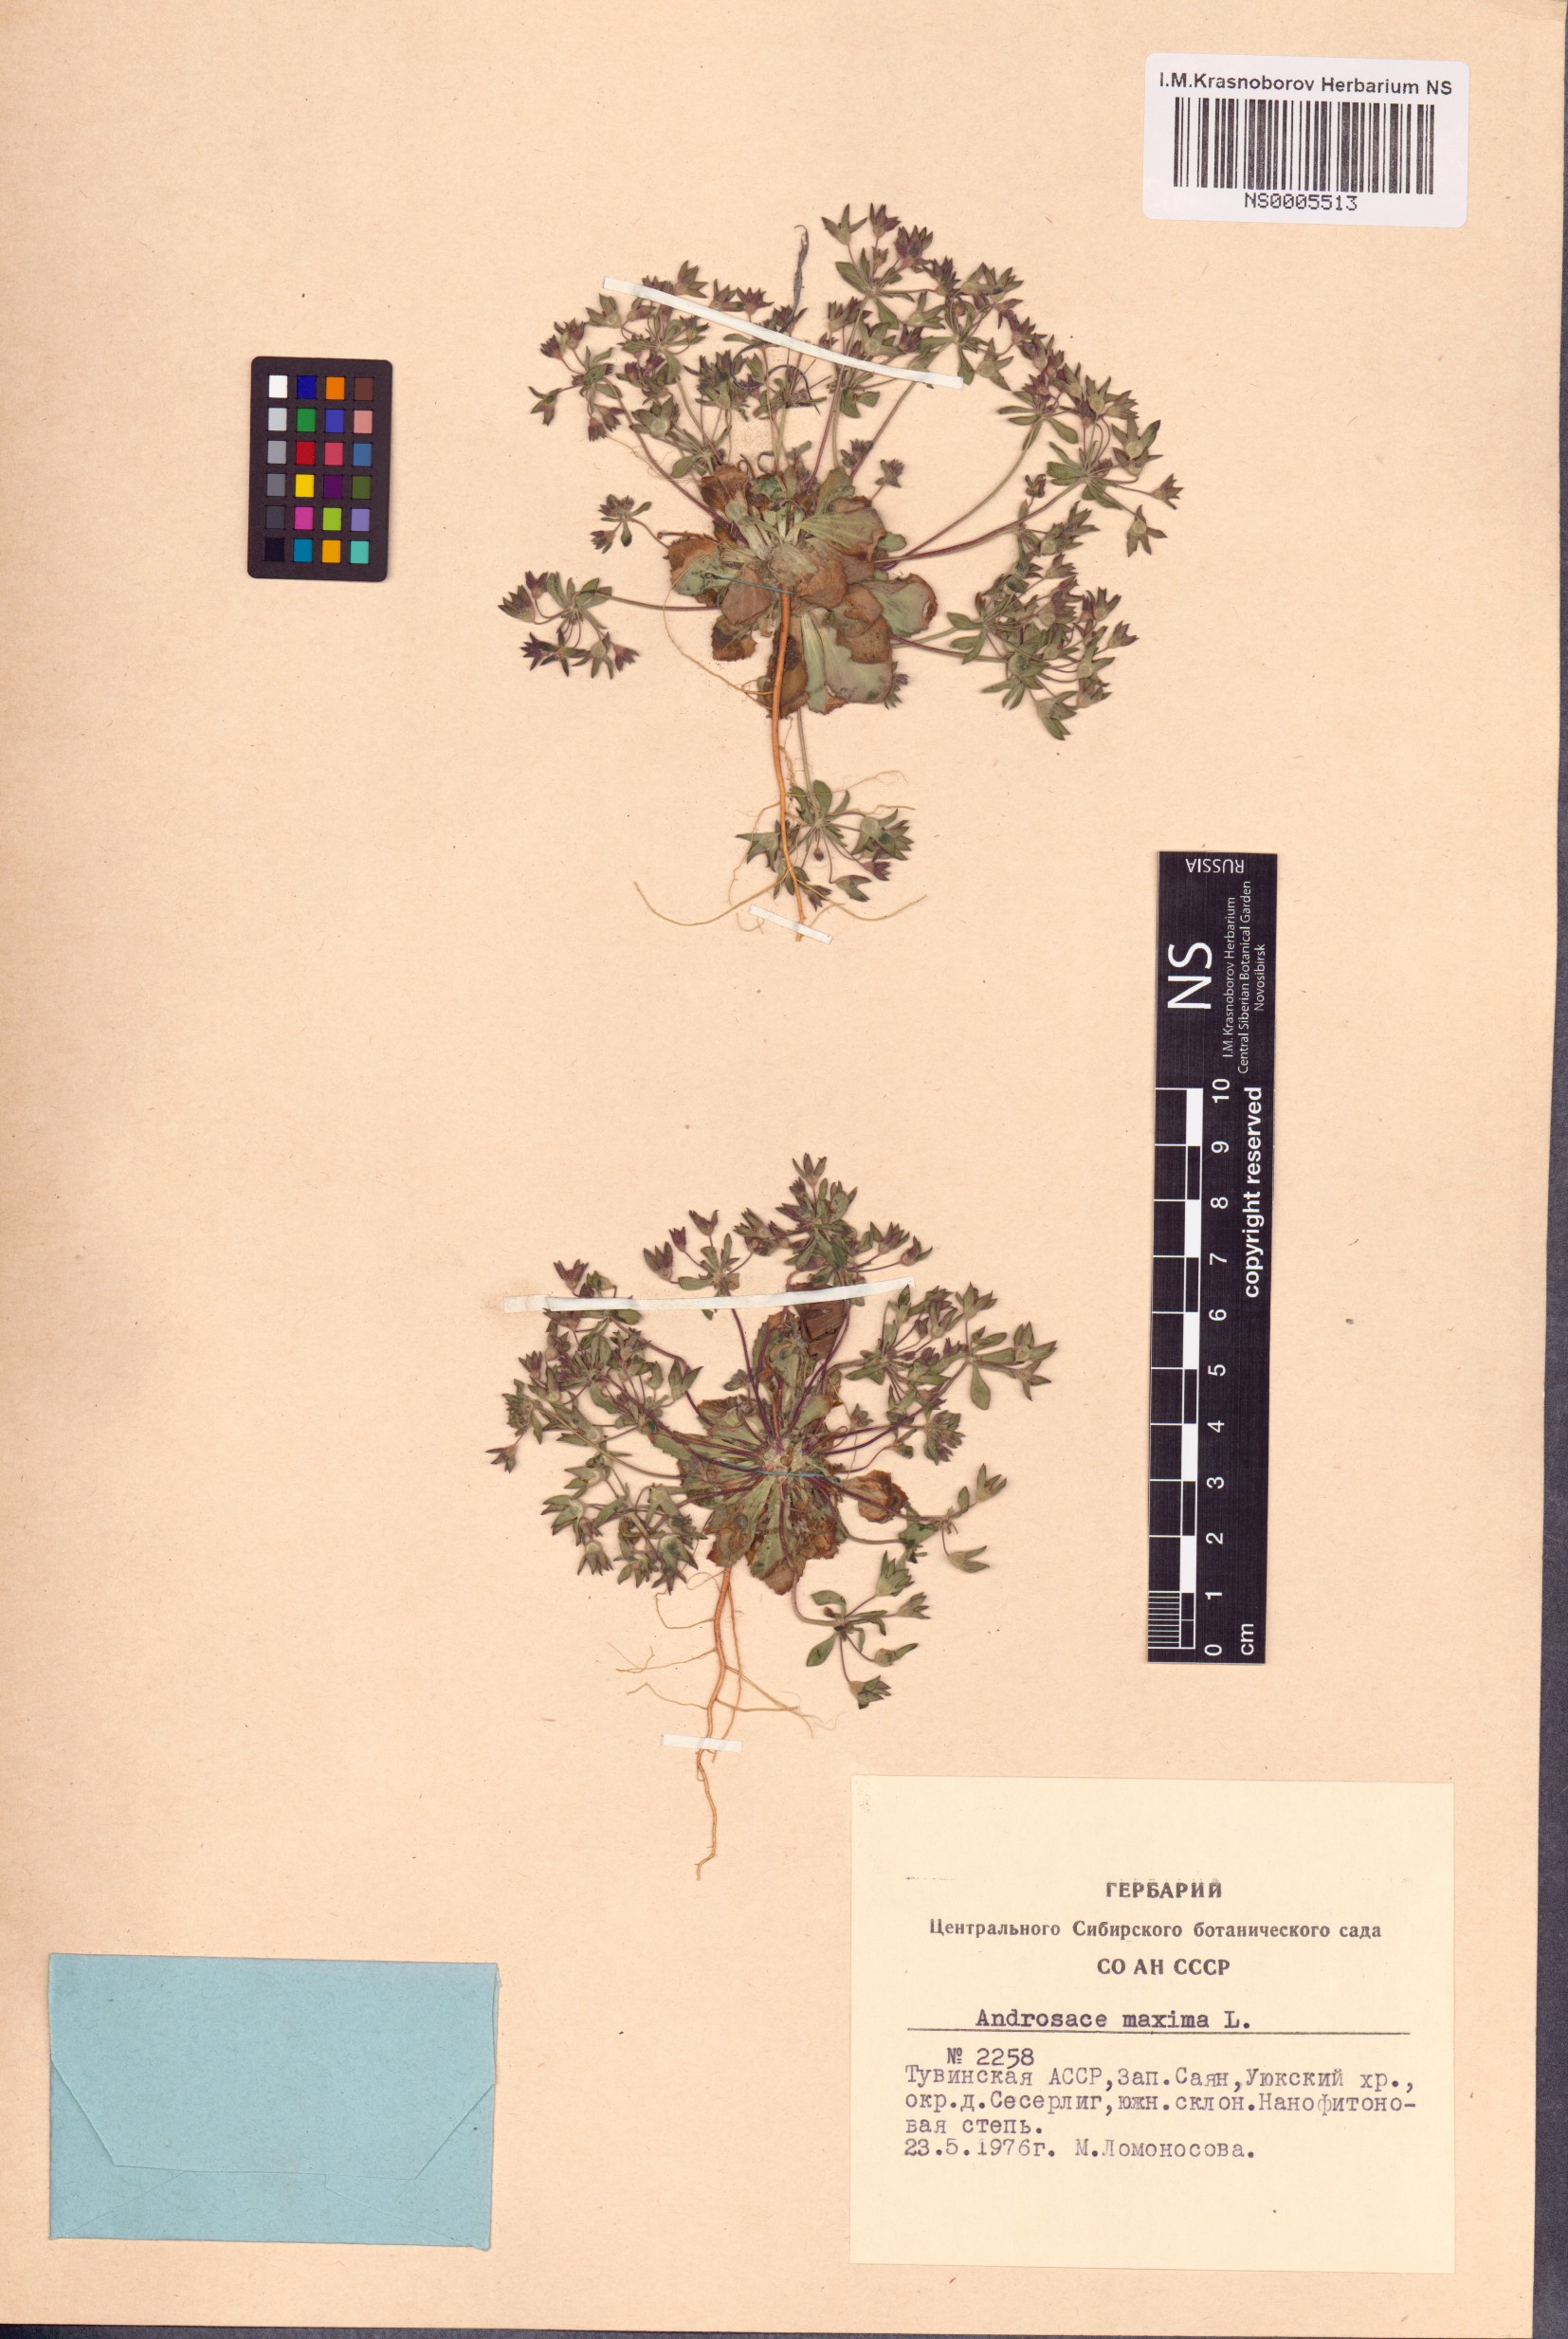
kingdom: Plantae
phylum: Tracheophyta
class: Magnoliopsida
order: Ericales
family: Primulaceae
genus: Androsace
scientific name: Androsace maxima
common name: Annual androsace
